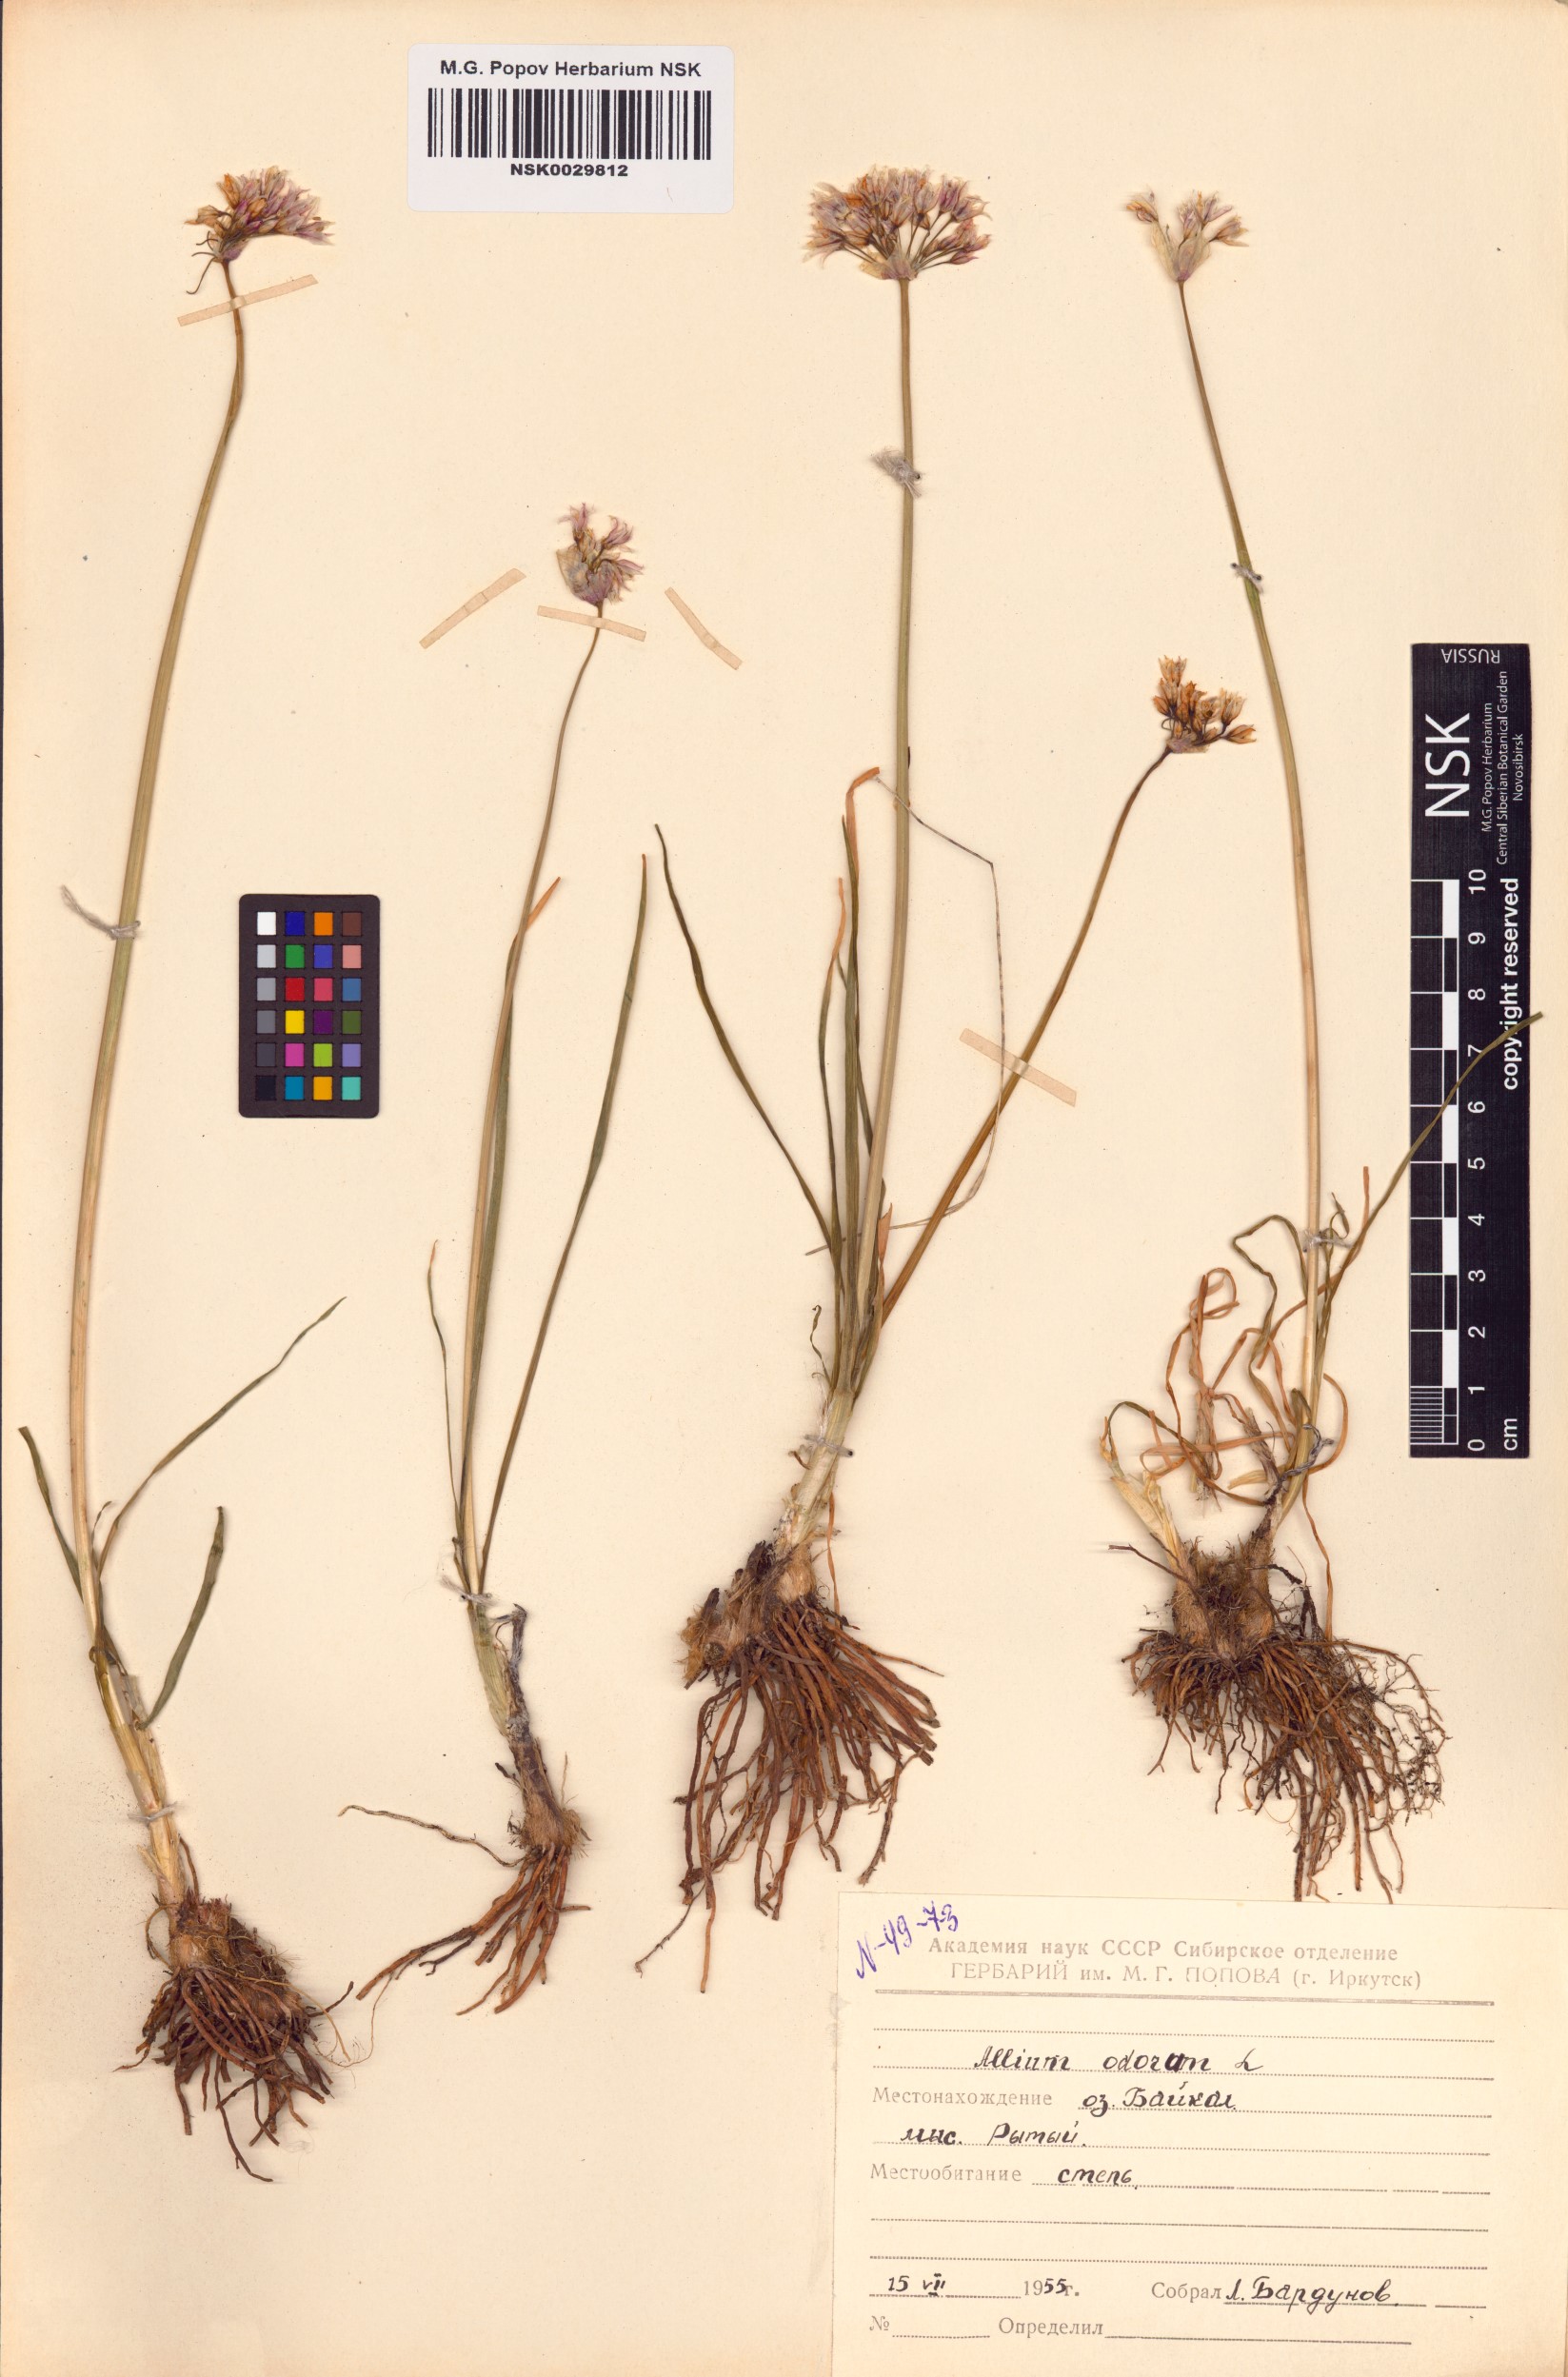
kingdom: Plantae
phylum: Tracheophyta
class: Liliopsida
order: Asparagales
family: Amaryllidaceae
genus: Allium
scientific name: Allium ramosum
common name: Fragrant garlic
